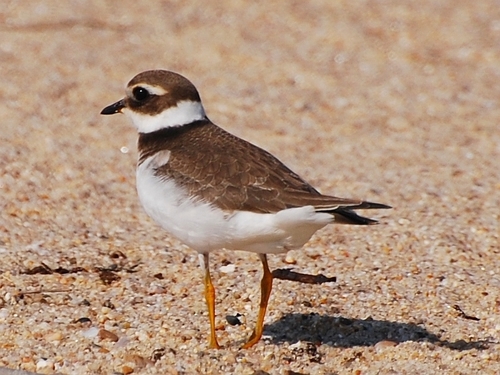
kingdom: Animalia
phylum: Chordata
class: Aves
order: Charadriiformes
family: Charadriidae
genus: Charadrius
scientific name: Charadrius hiaticula
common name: Common ringed plover
